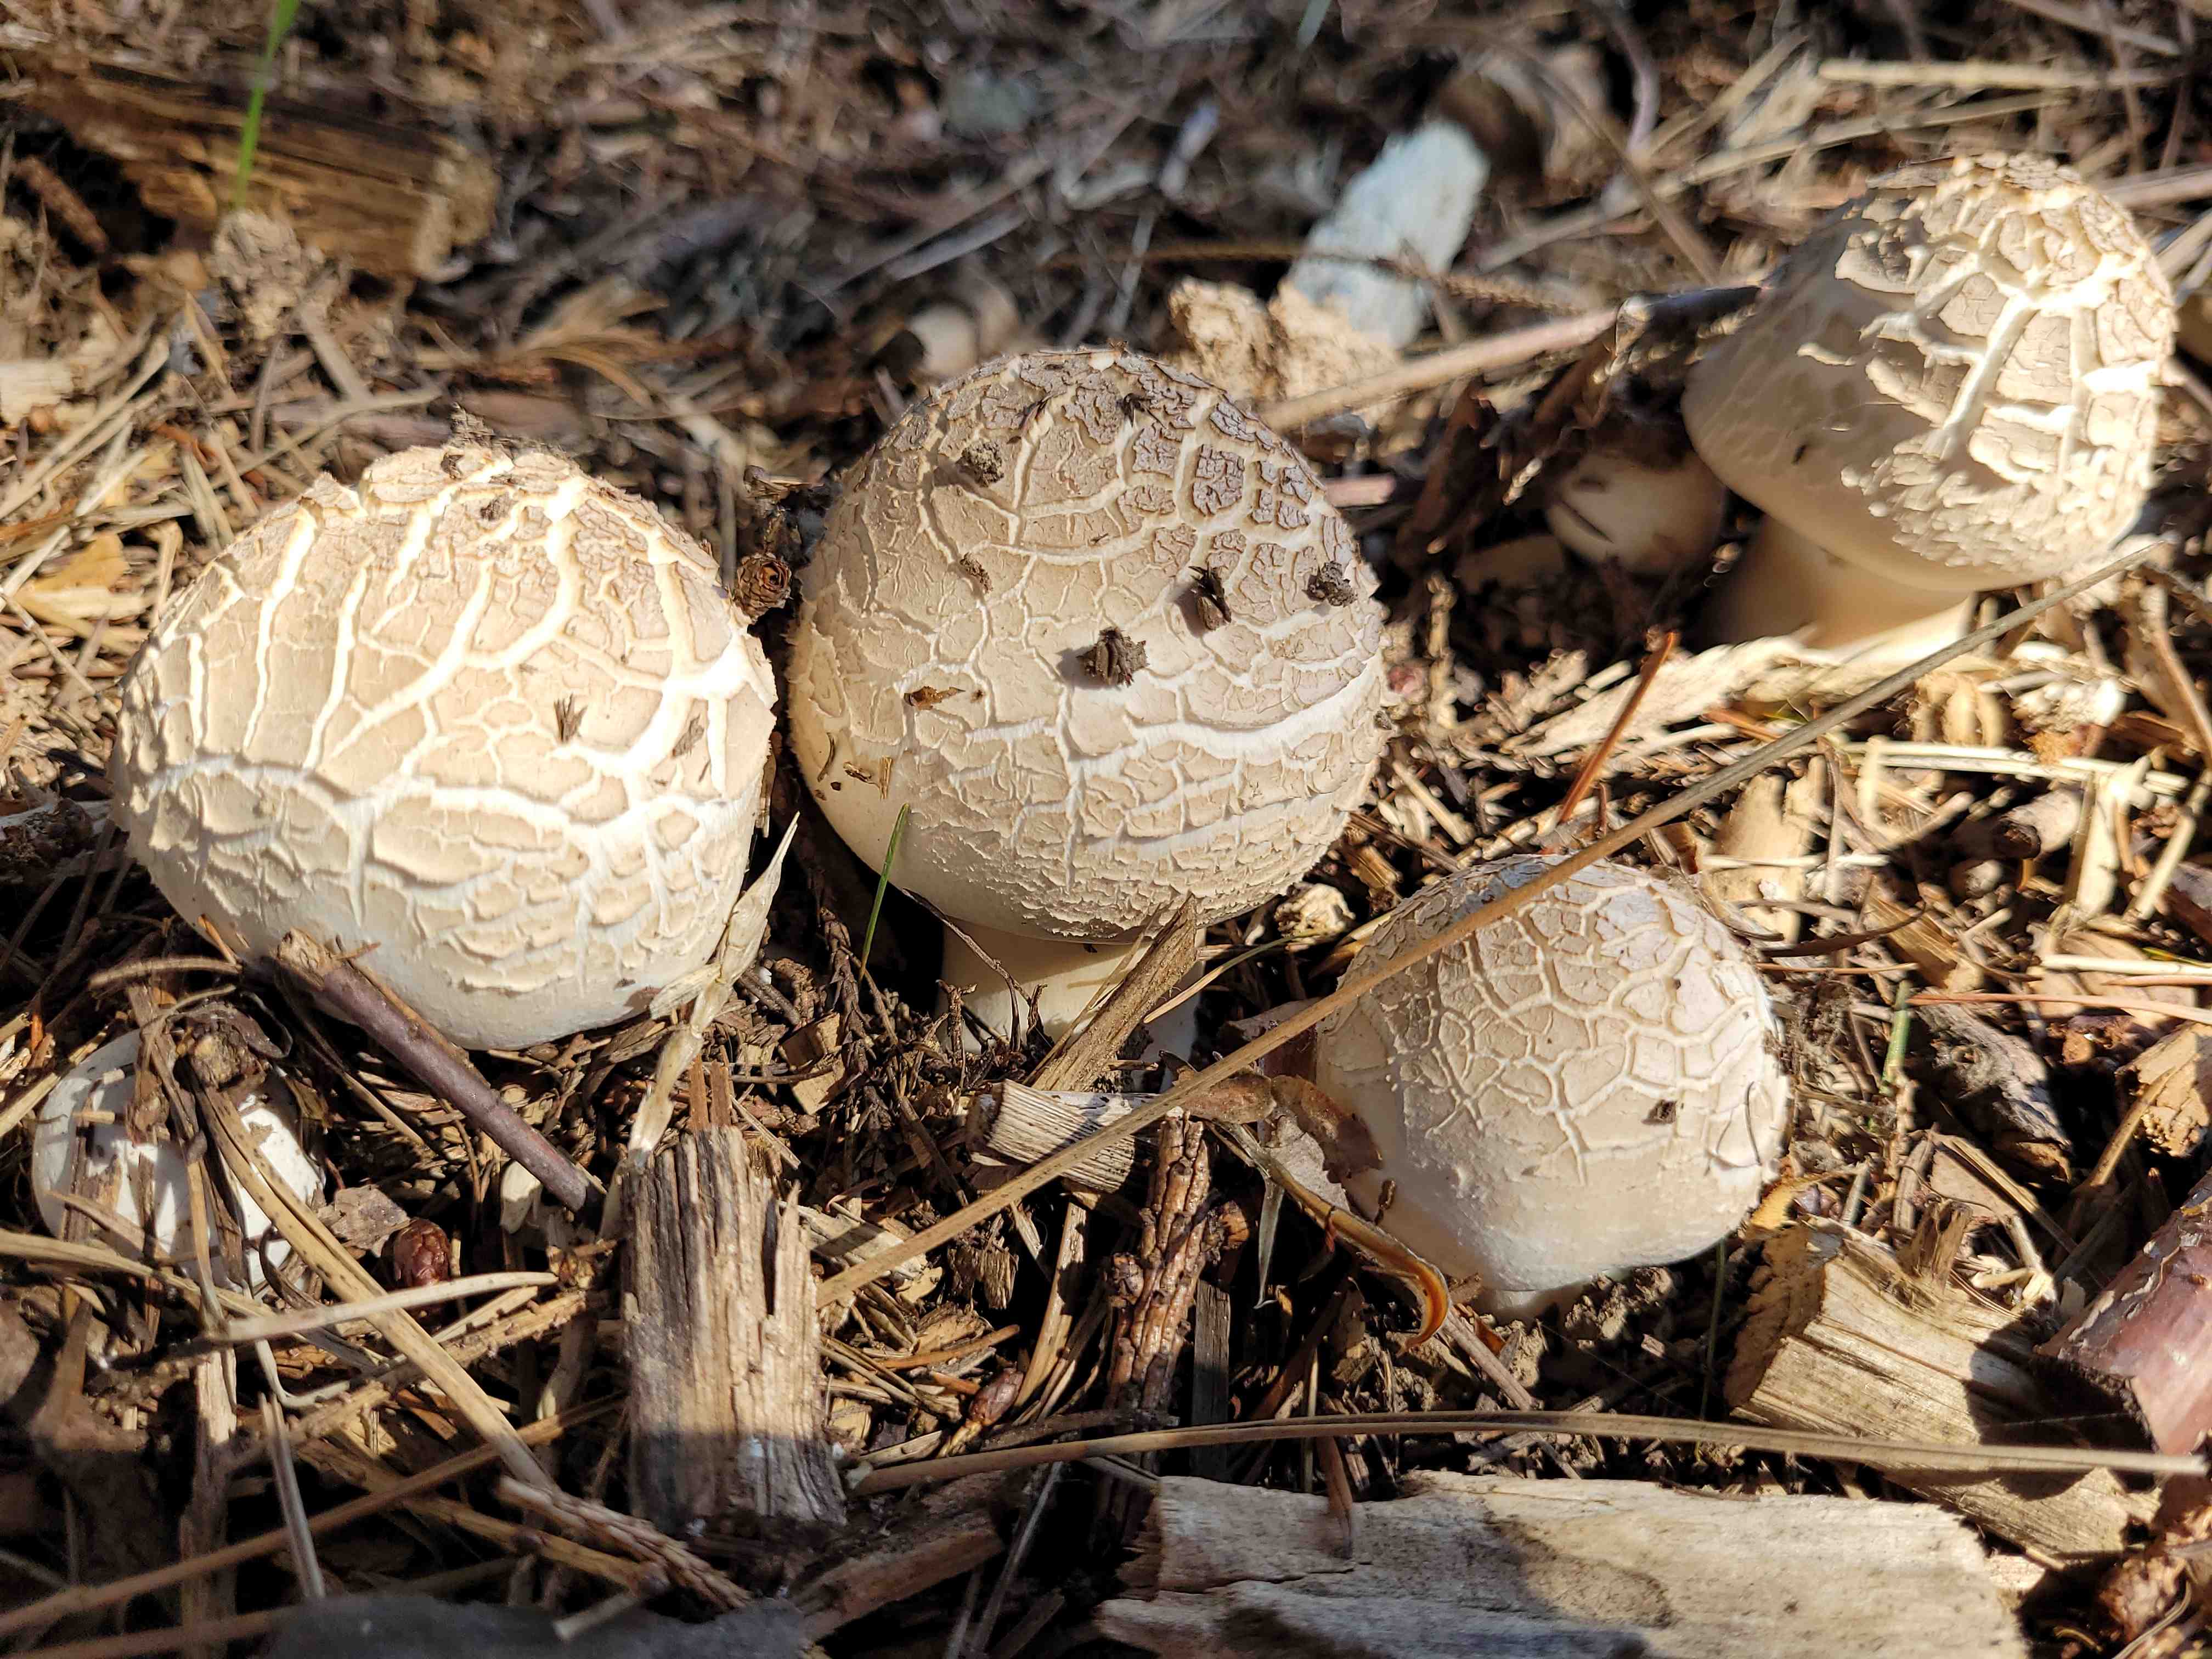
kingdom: Fungi
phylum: Basidiomycota
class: Agaricomycetes
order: Agaricales
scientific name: Agaricales
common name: champignonordenen
